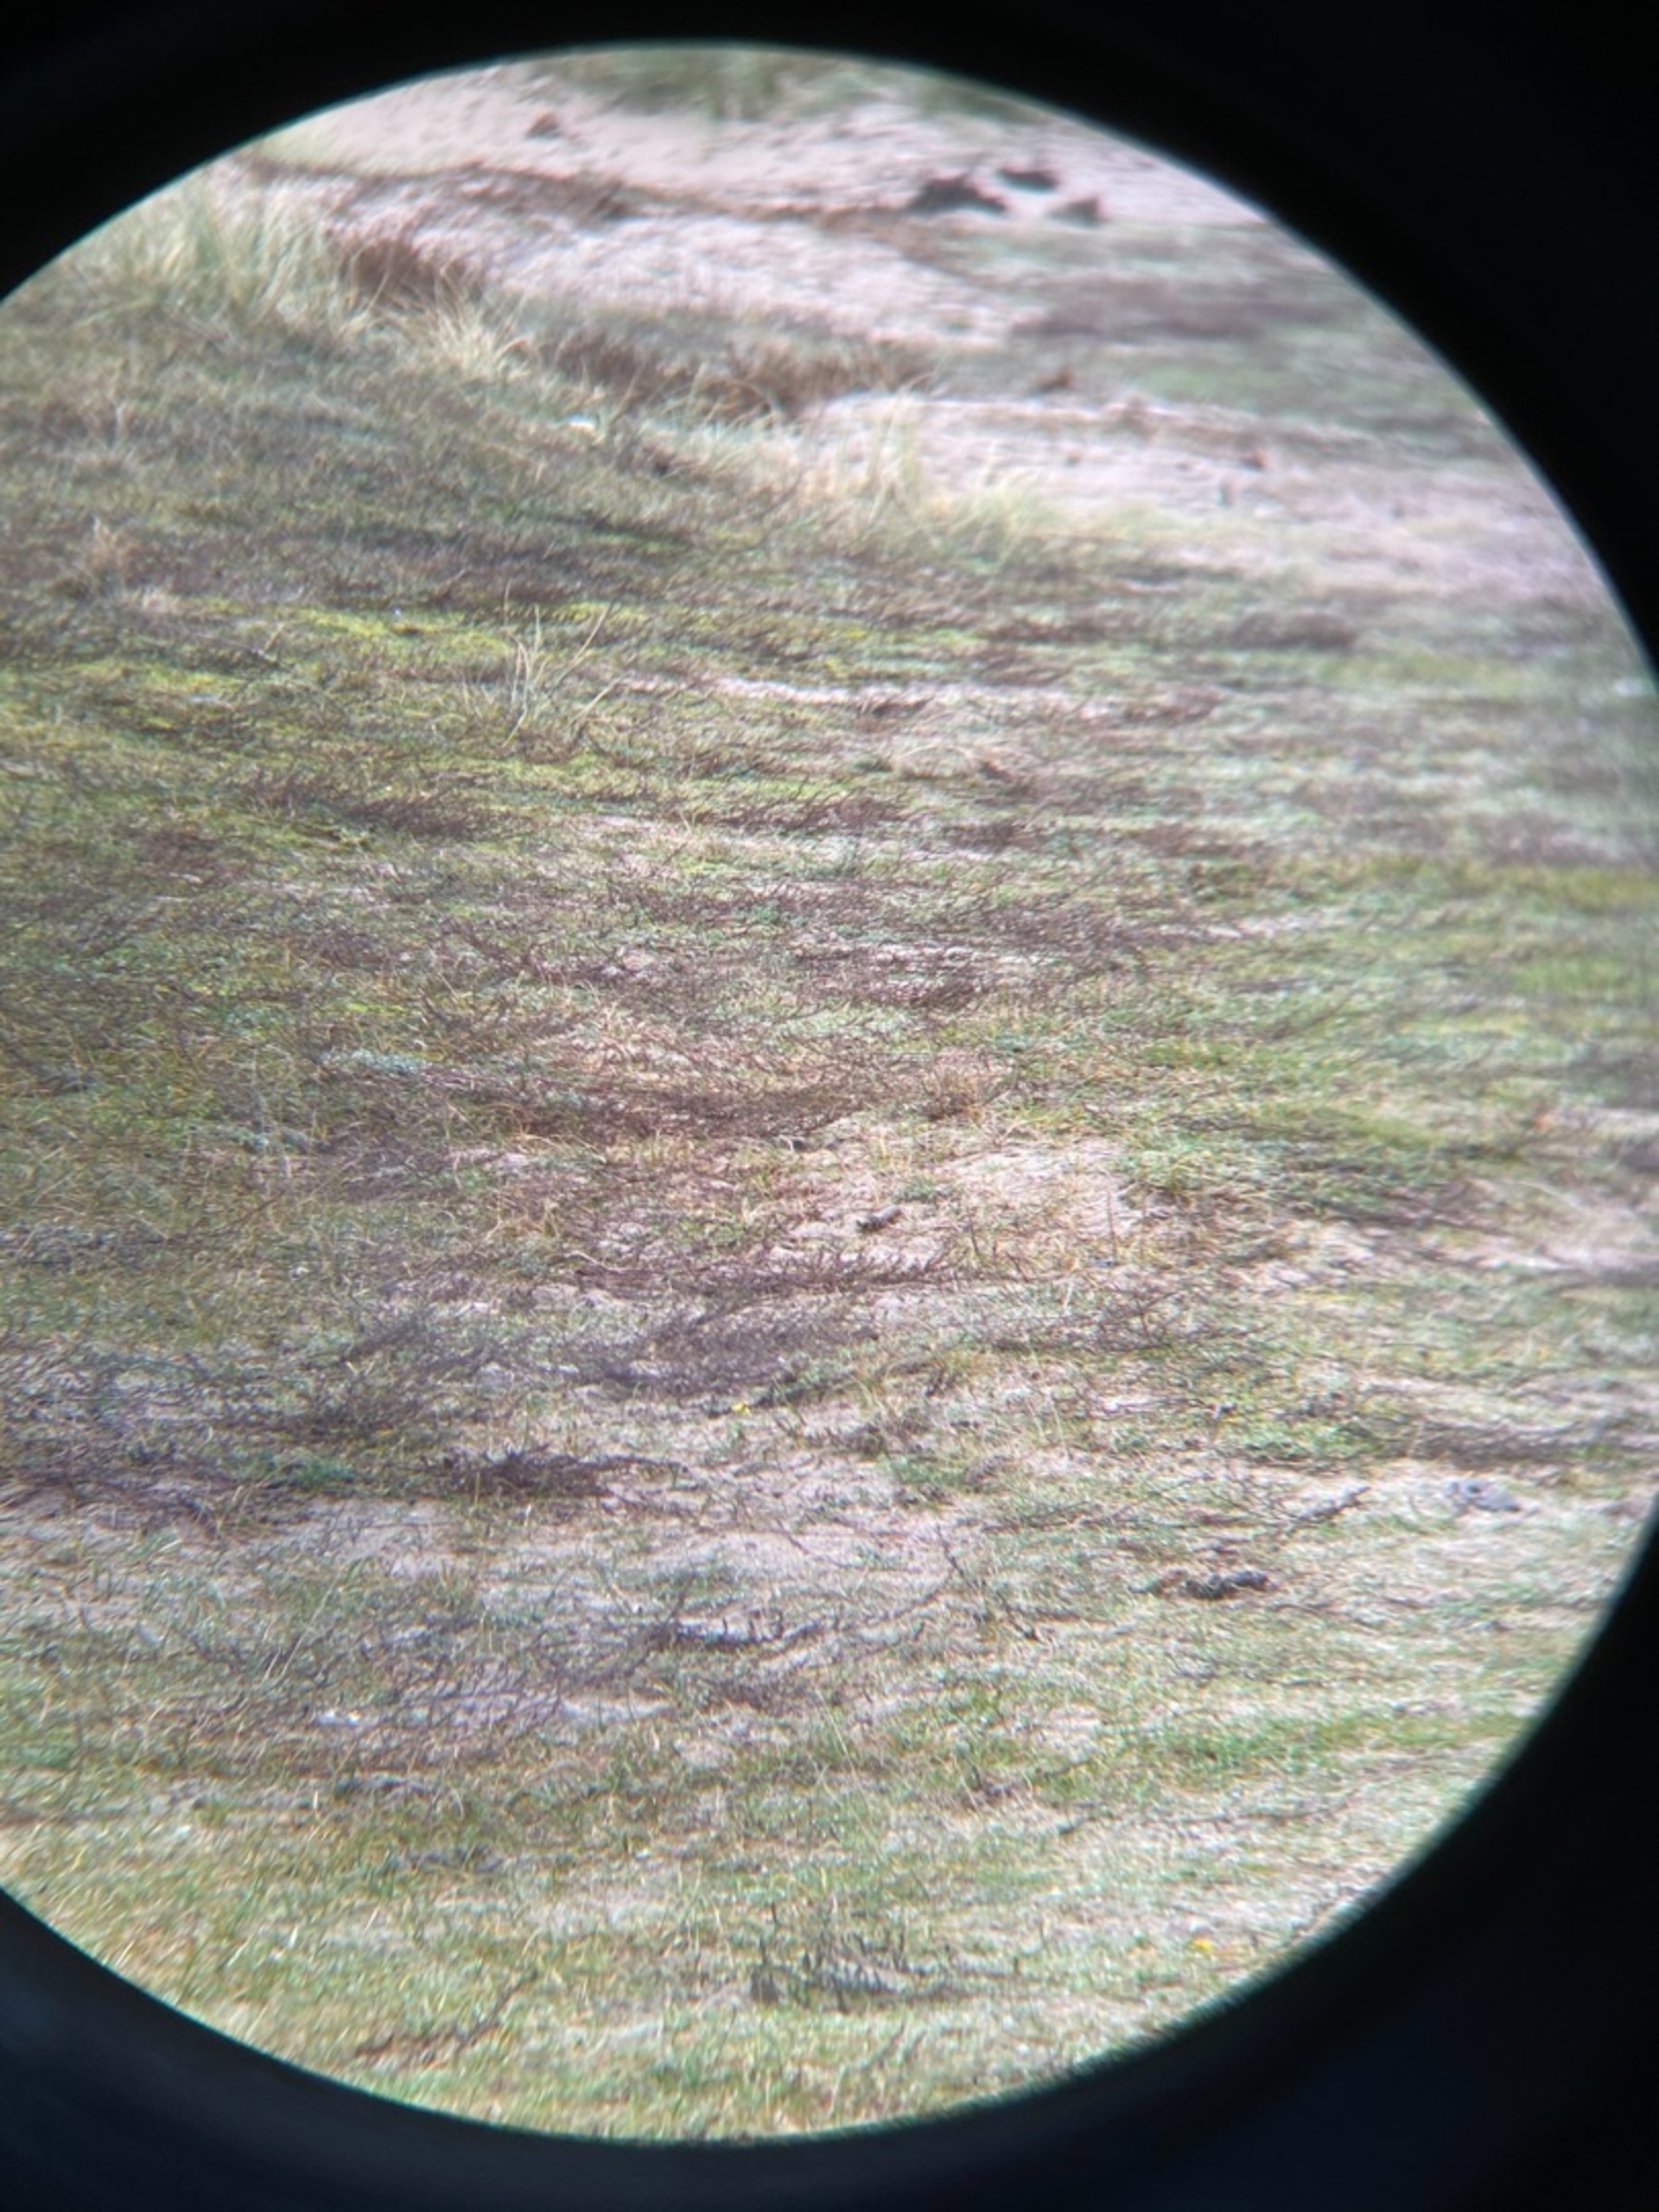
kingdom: Animalia
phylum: Chordata
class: Aves
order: Passeriformes
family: Alaudidae
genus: Eremophila
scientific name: Eremophila alpestris
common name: Bjerglærke
